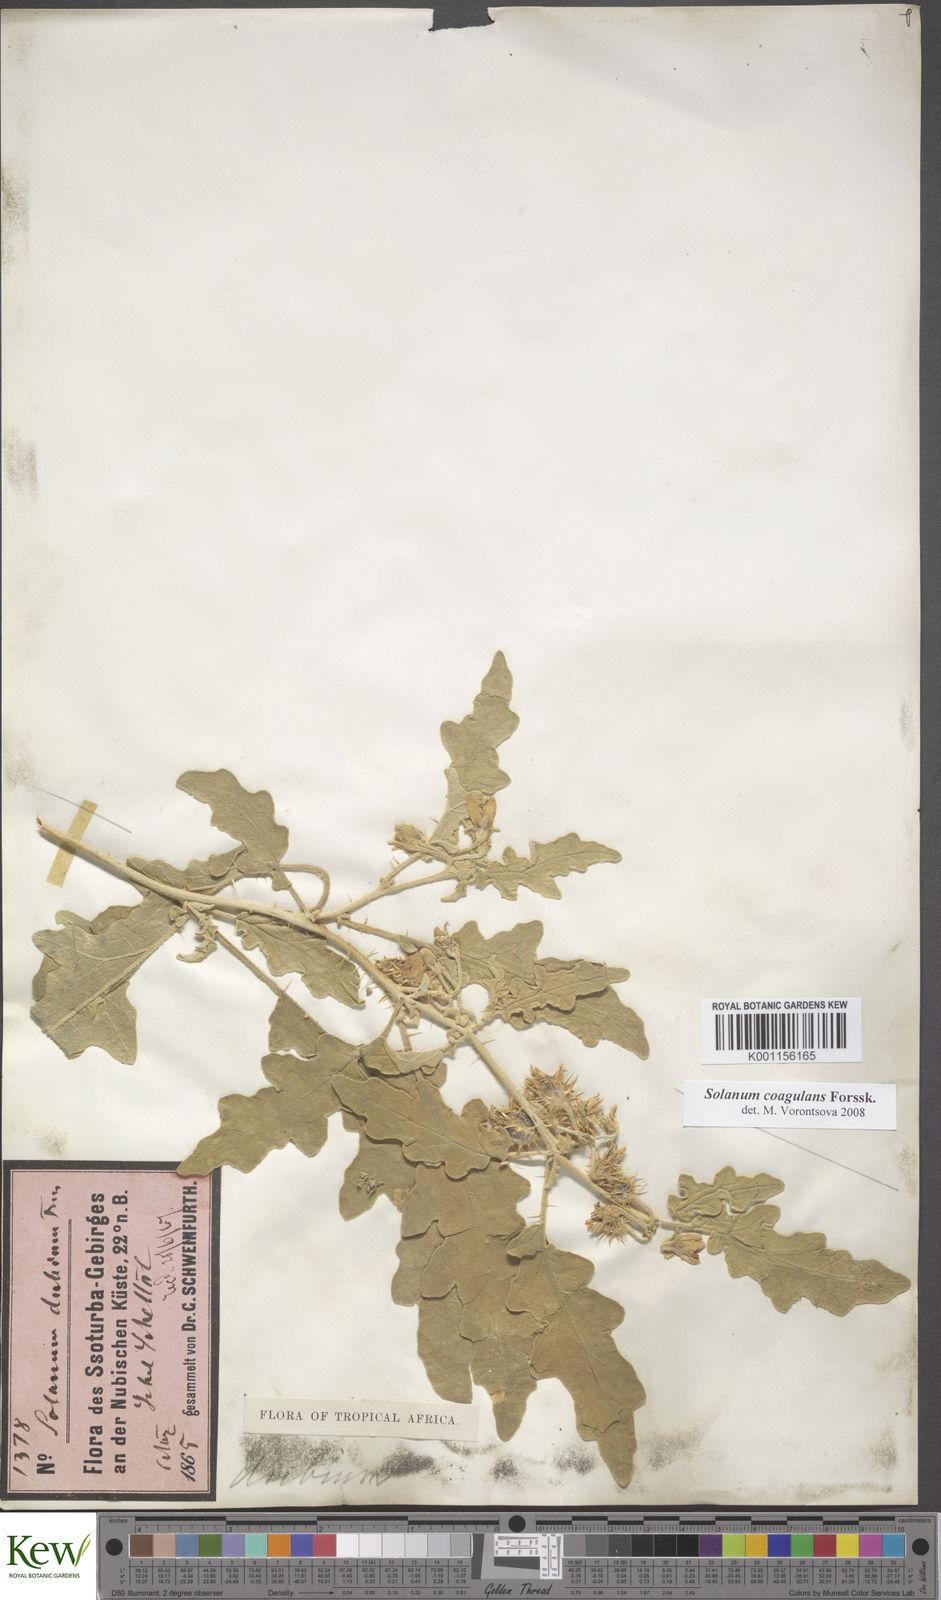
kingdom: Plantae
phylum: Tracheophyta
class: Magnoliopsida
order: Solanales
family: Solanaceae
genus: Solanum
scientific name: Solanum coagulans
